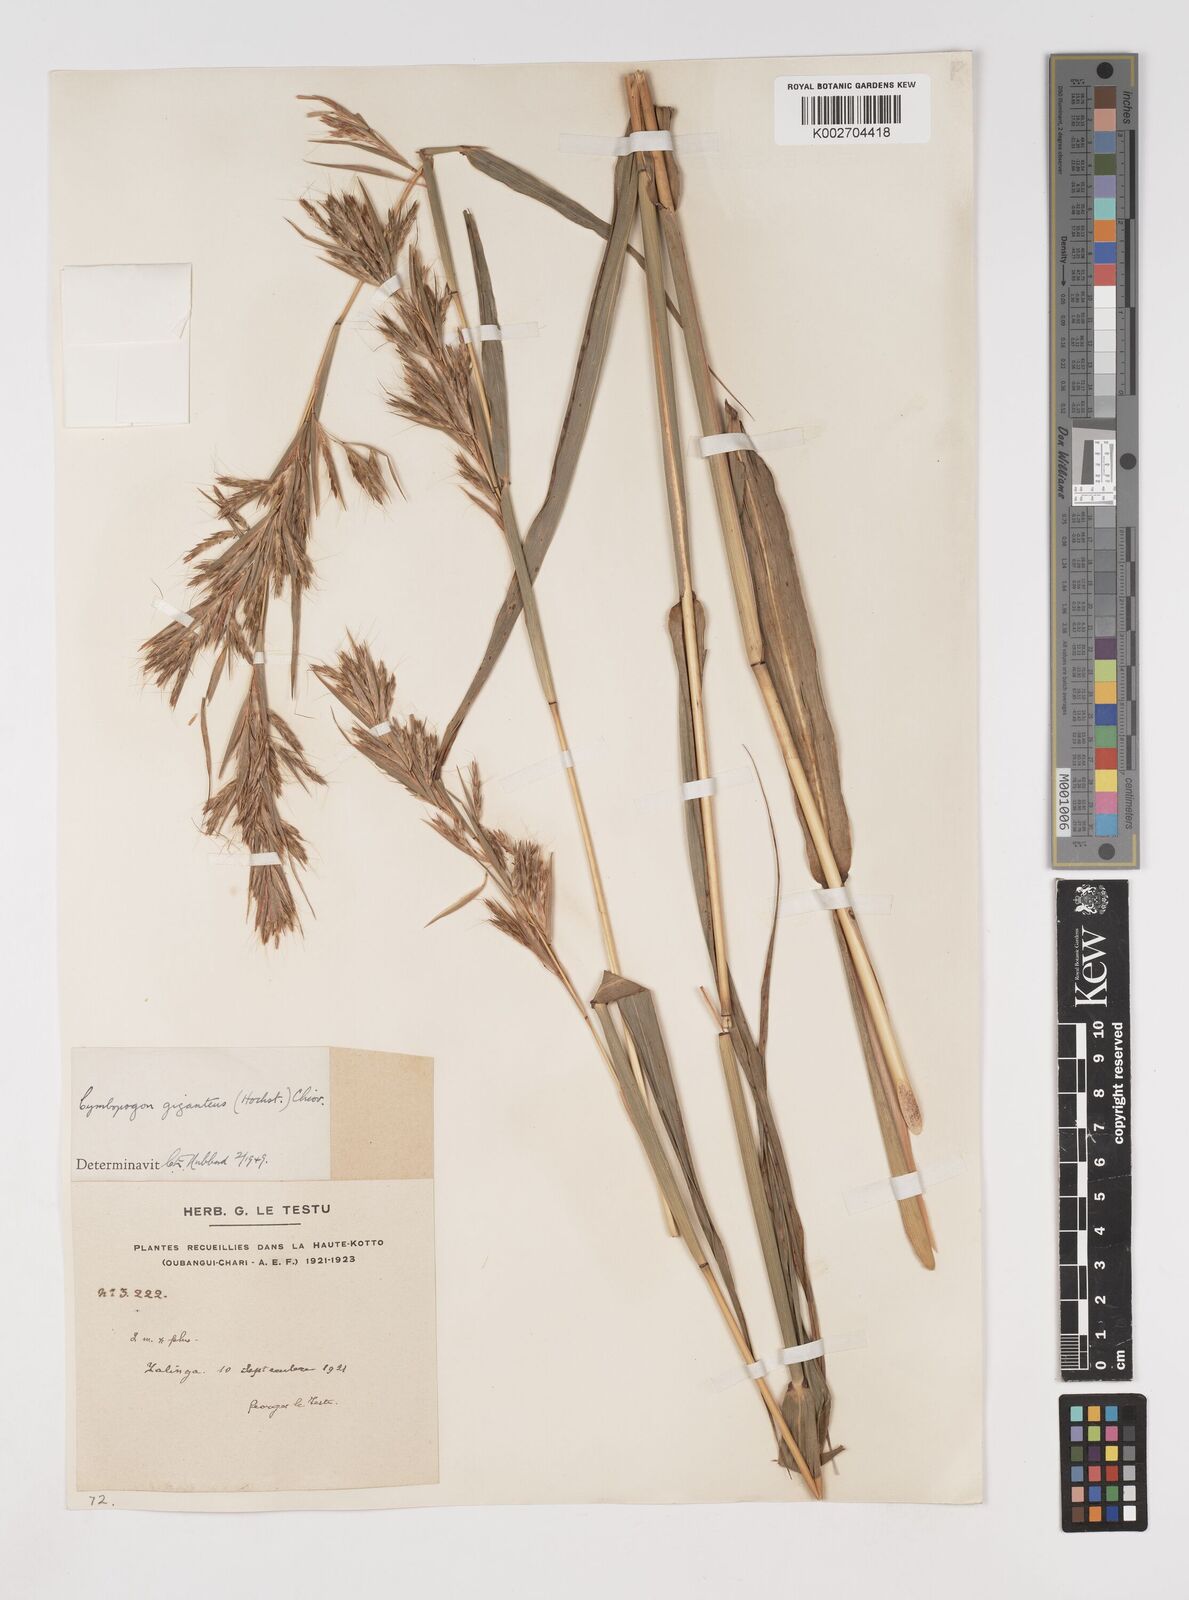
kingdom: Plantae
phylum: Tracheophyta
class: Liliopsida
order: Poales
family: Poaceae
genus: Cymbopogon
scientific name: Cymbopogon giganteus
